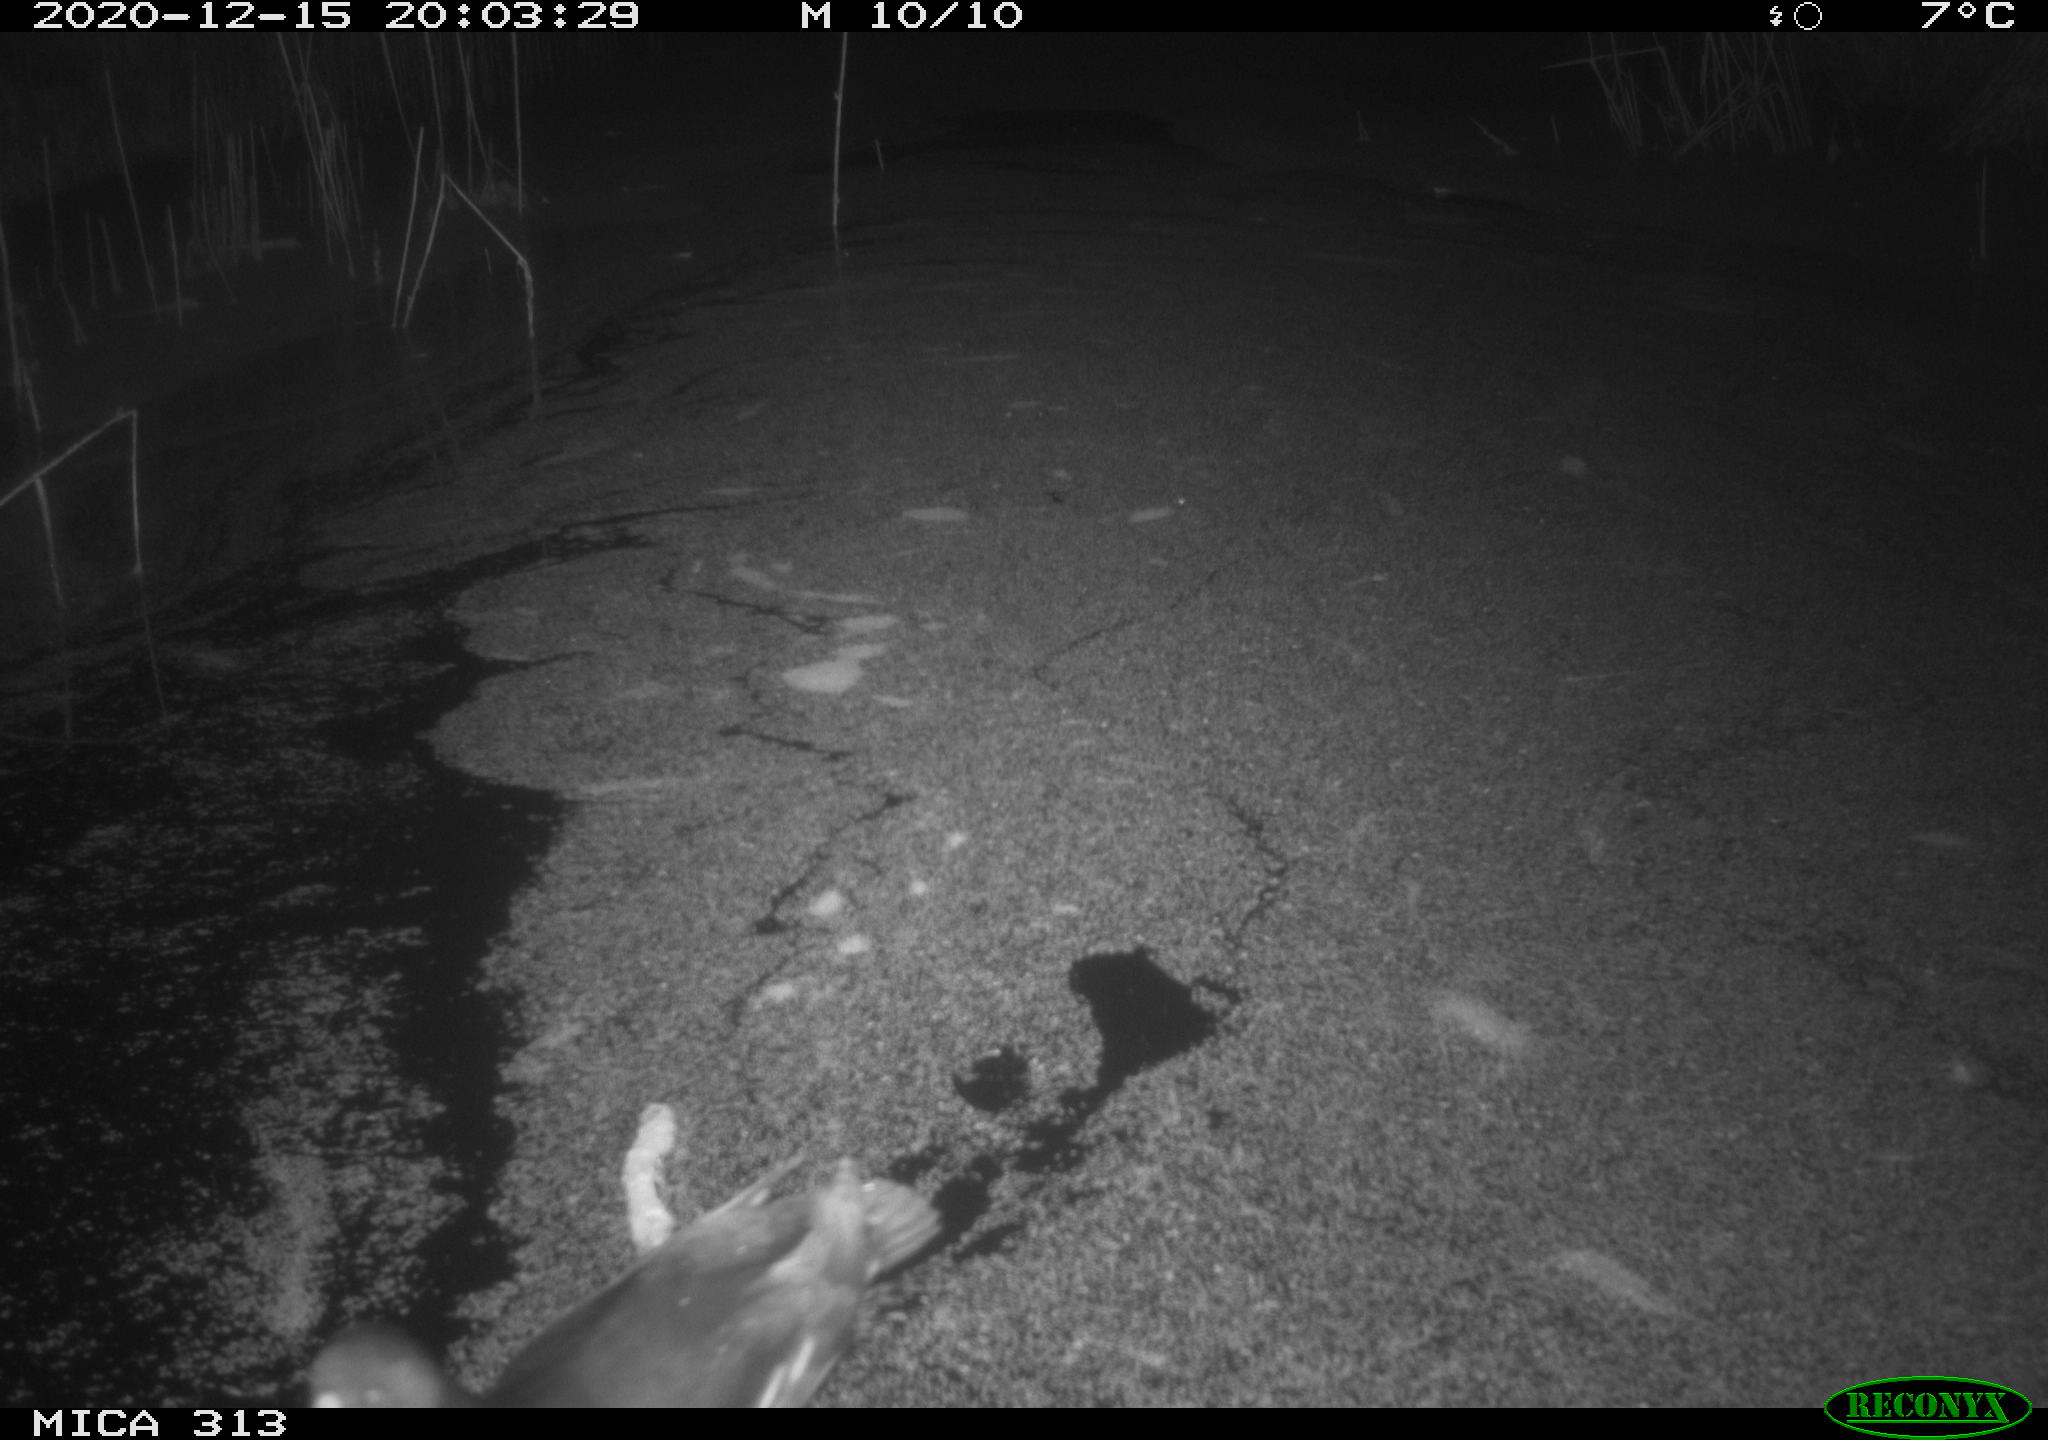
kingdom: Animalia
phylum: Chordata
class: Aves
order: Gruiformes
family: Rallidae
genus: Fulica
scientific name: Fulica atra
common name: Eurasian coot
